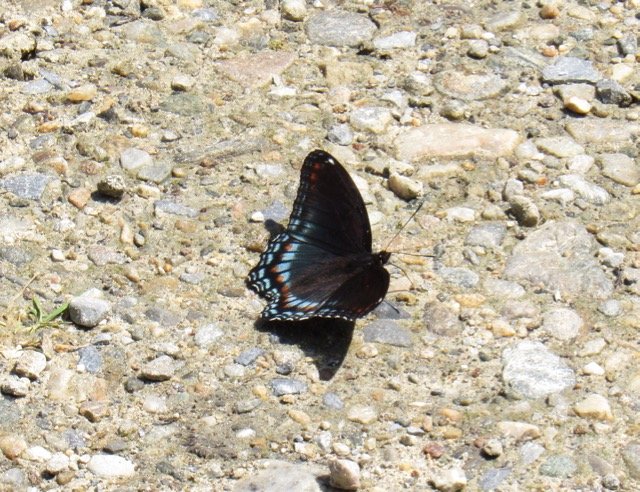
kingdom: Animalia
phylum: Arthropoda
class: Insecta
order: Lepidoptera
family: Nymphalidae
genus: Limenitis
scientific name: Limenitis
